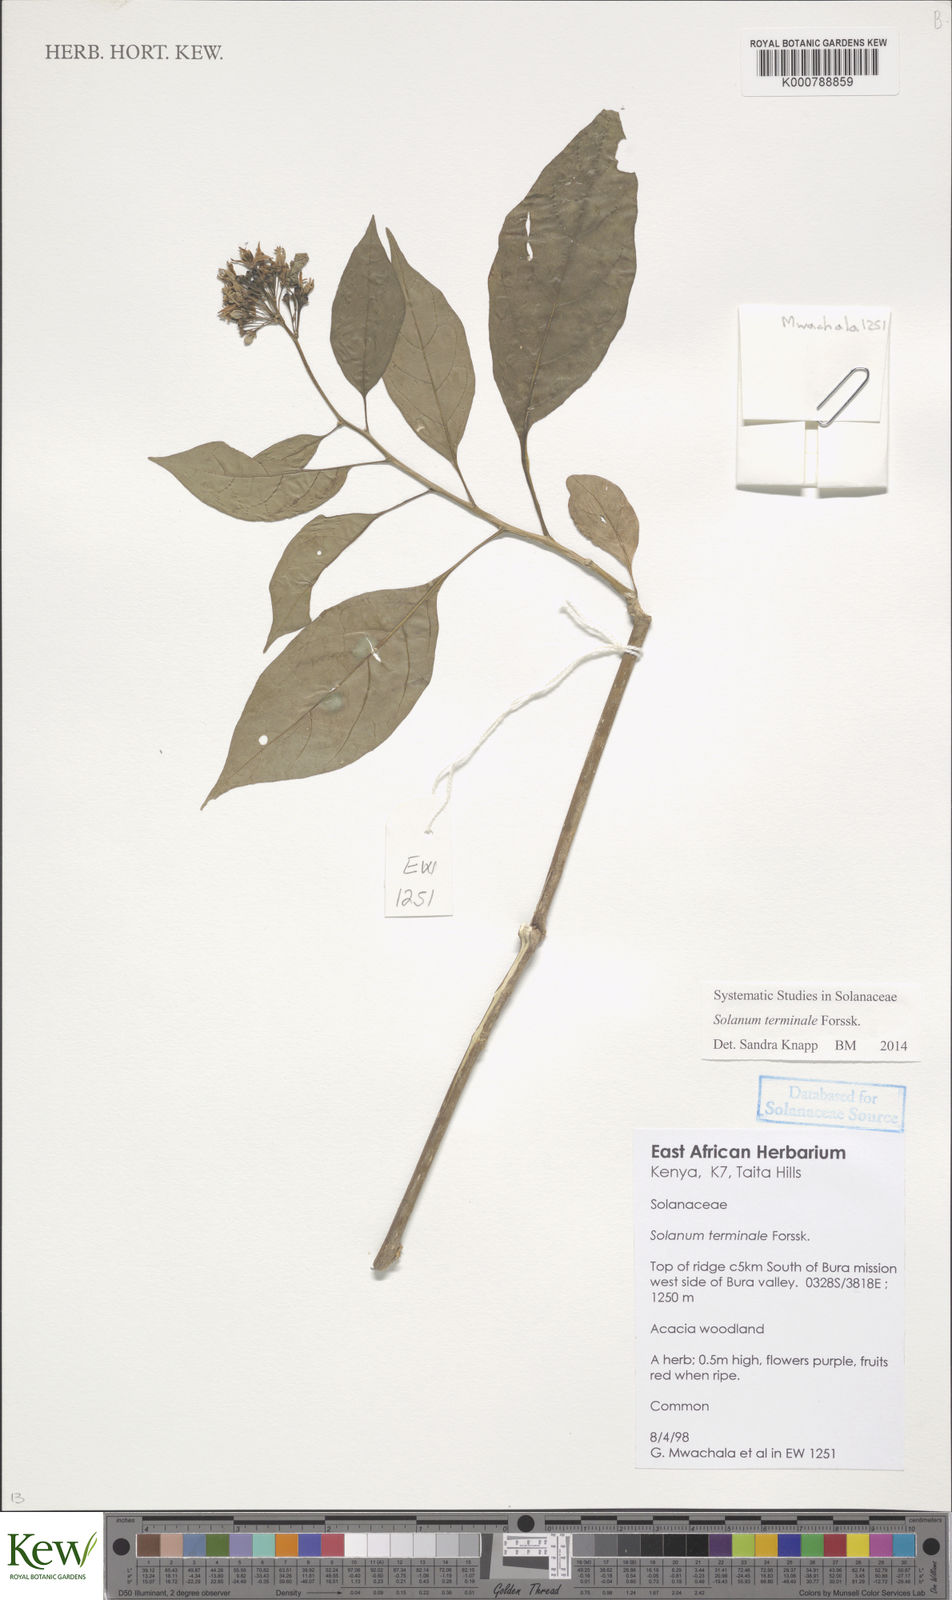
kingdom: Plantae
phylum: Tracheophyta
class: Magnoliopsida
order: Solanales
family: Solanaceae
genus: Solanum
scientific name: Solanum terminale
